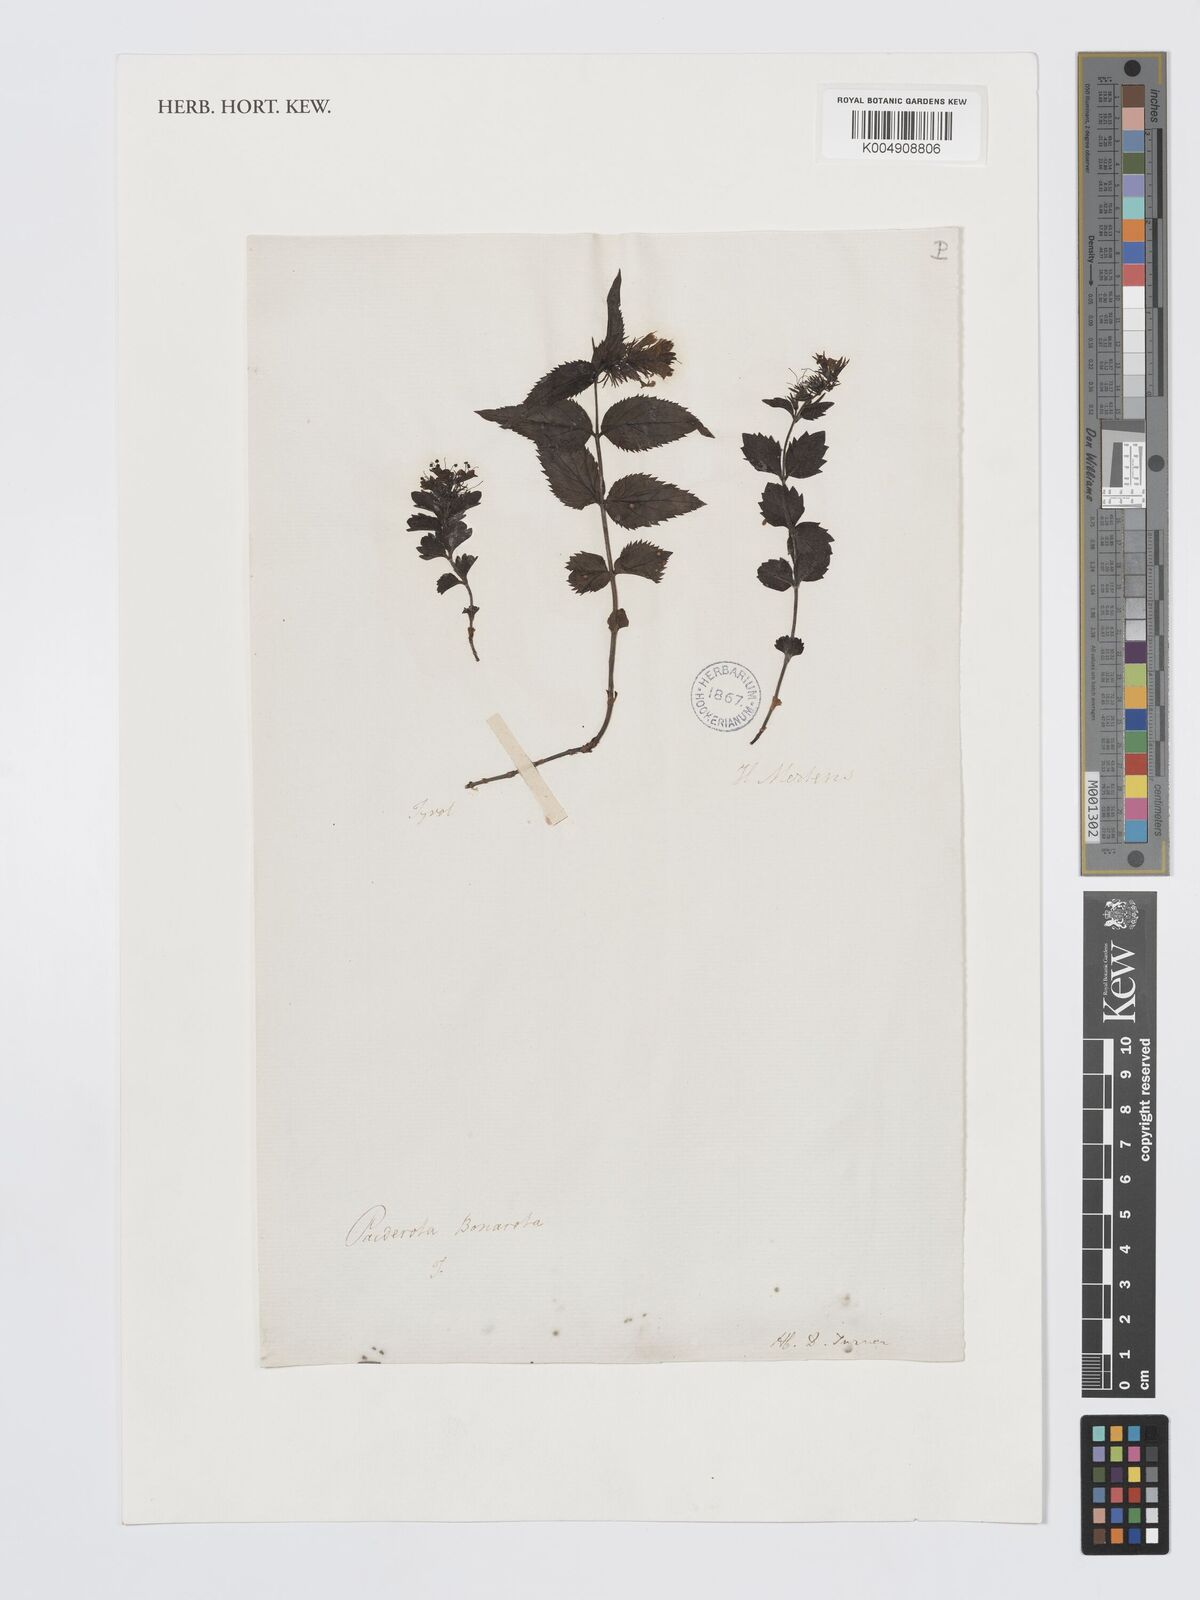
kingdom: Plantae
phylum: Tracheophyta
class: Magnoliopsida
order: Lamiales
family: Plantaginaceae
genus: Paederota
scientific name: Paederota lutea
